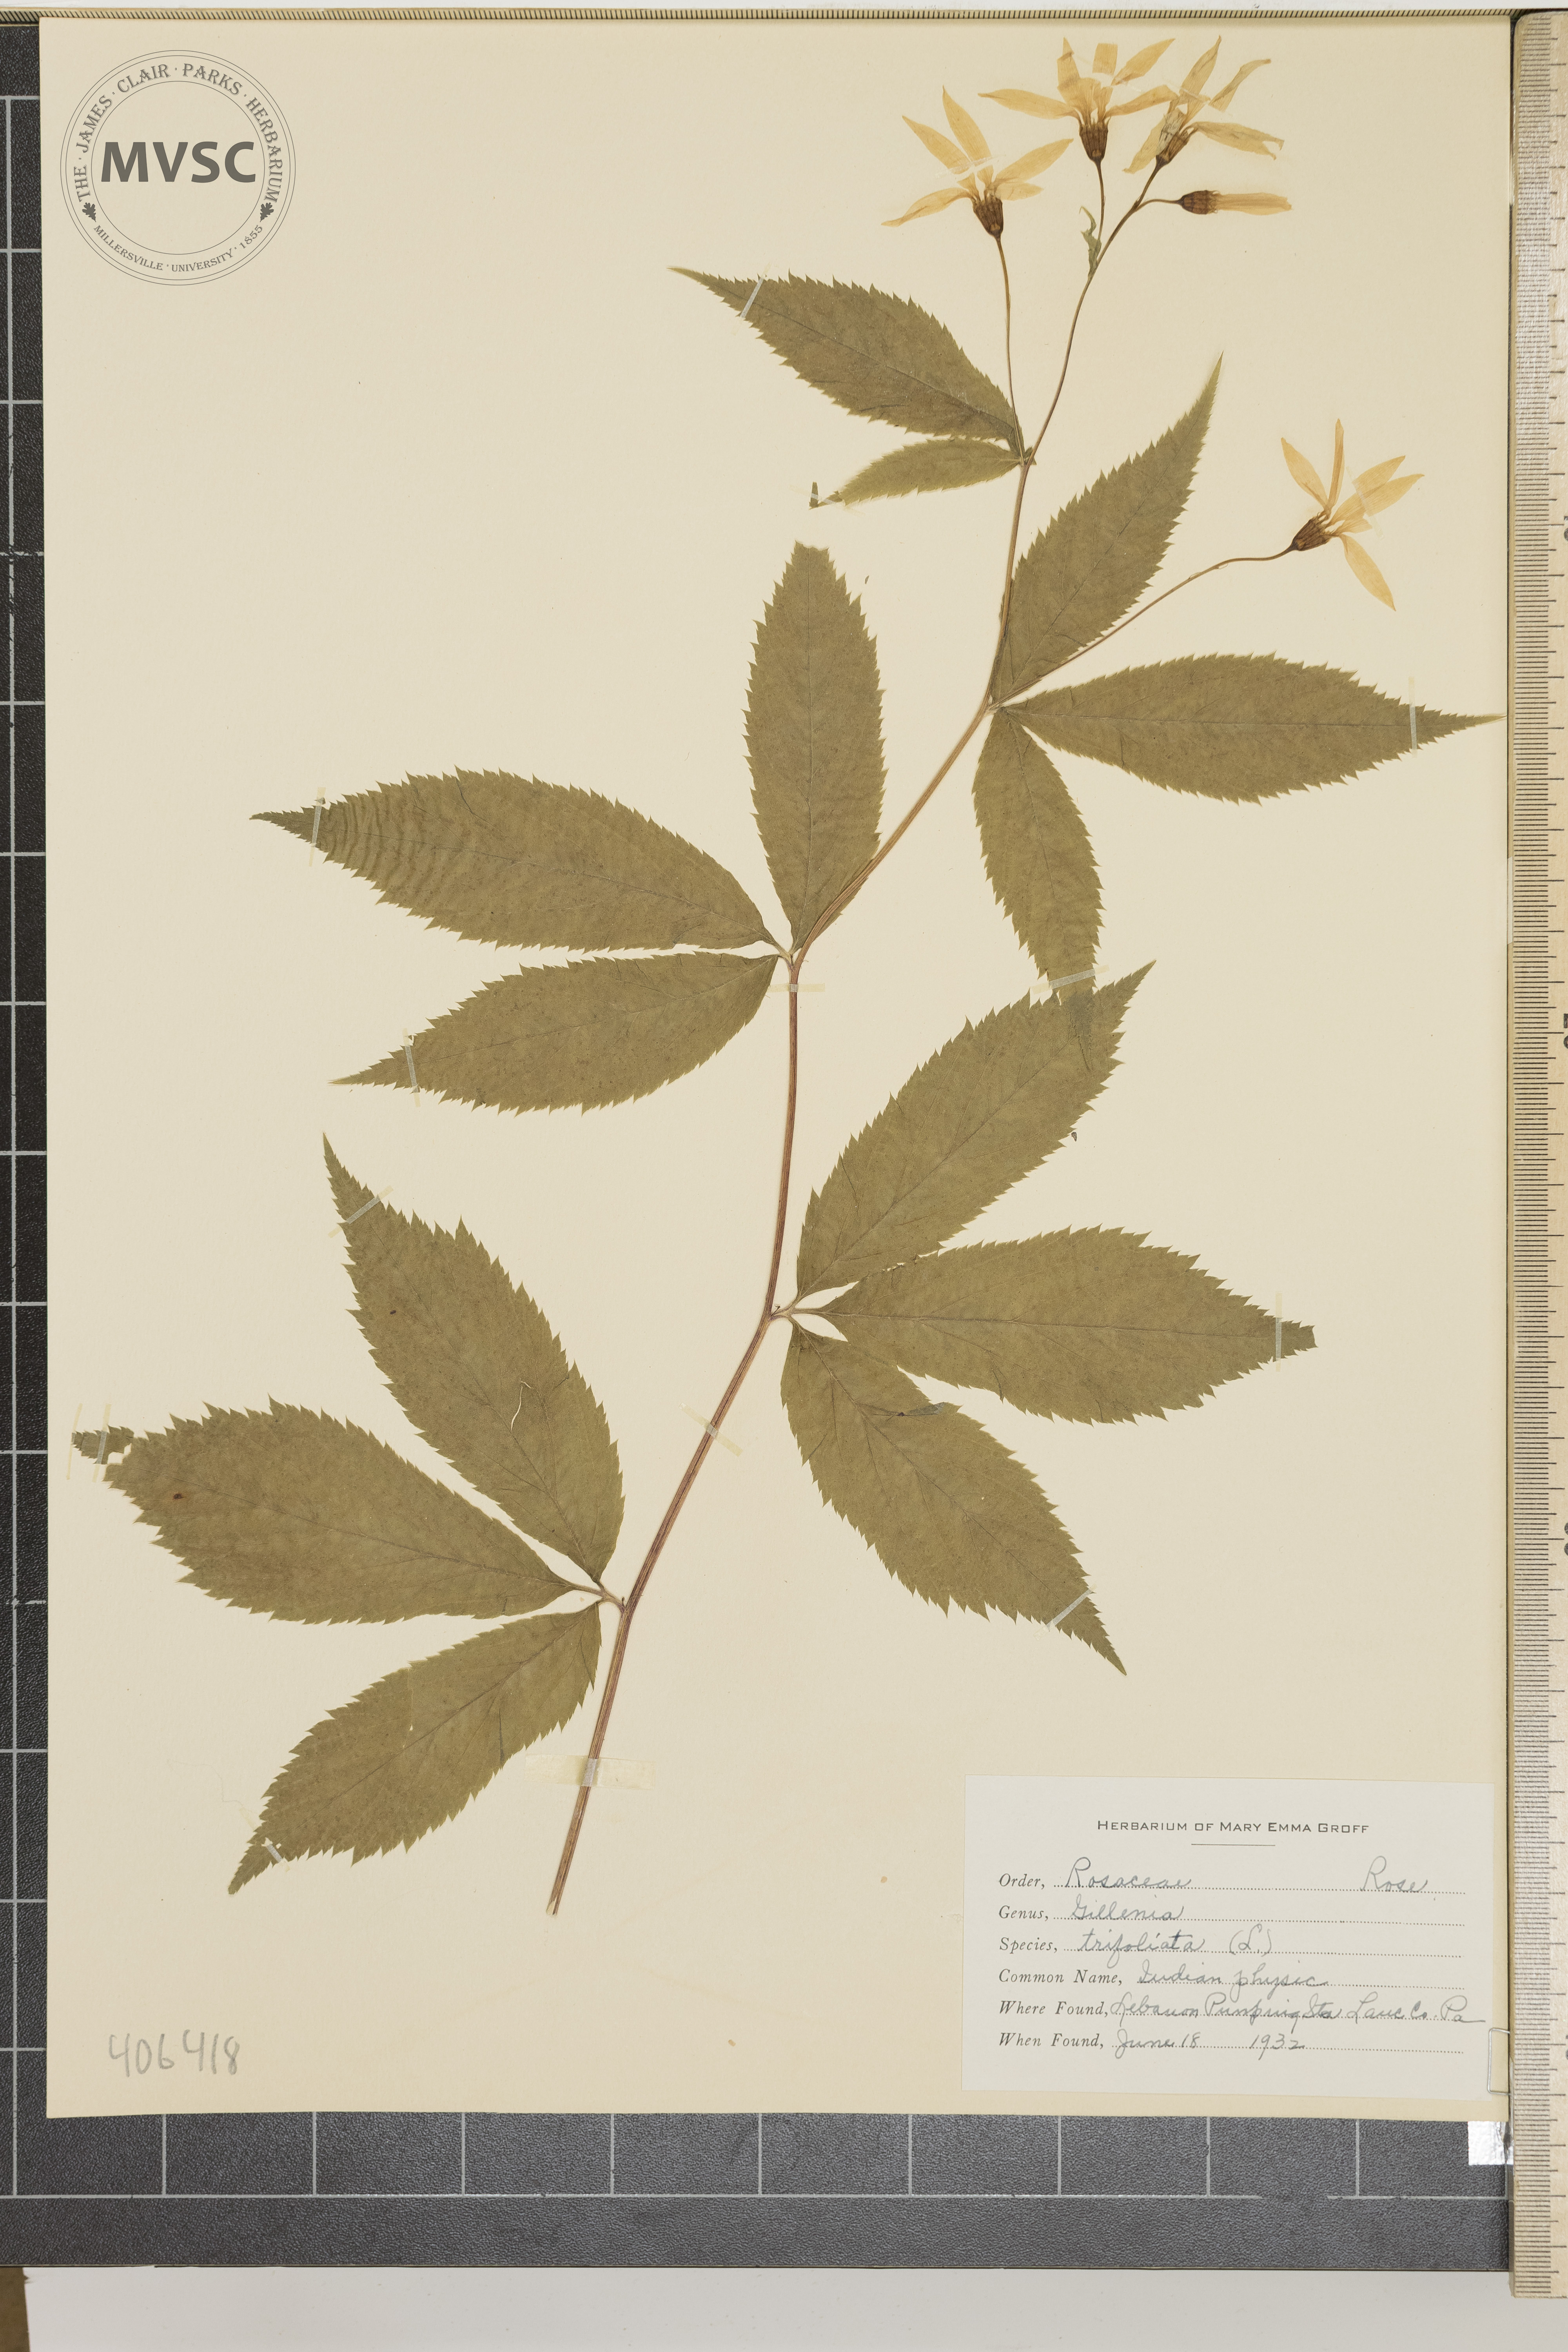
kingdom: Plantae
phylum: Tracheophyta
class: Magnoliopsida
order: Rosales
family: Rosaceae
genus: Gillenia
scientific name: Gillenia trifoliata
